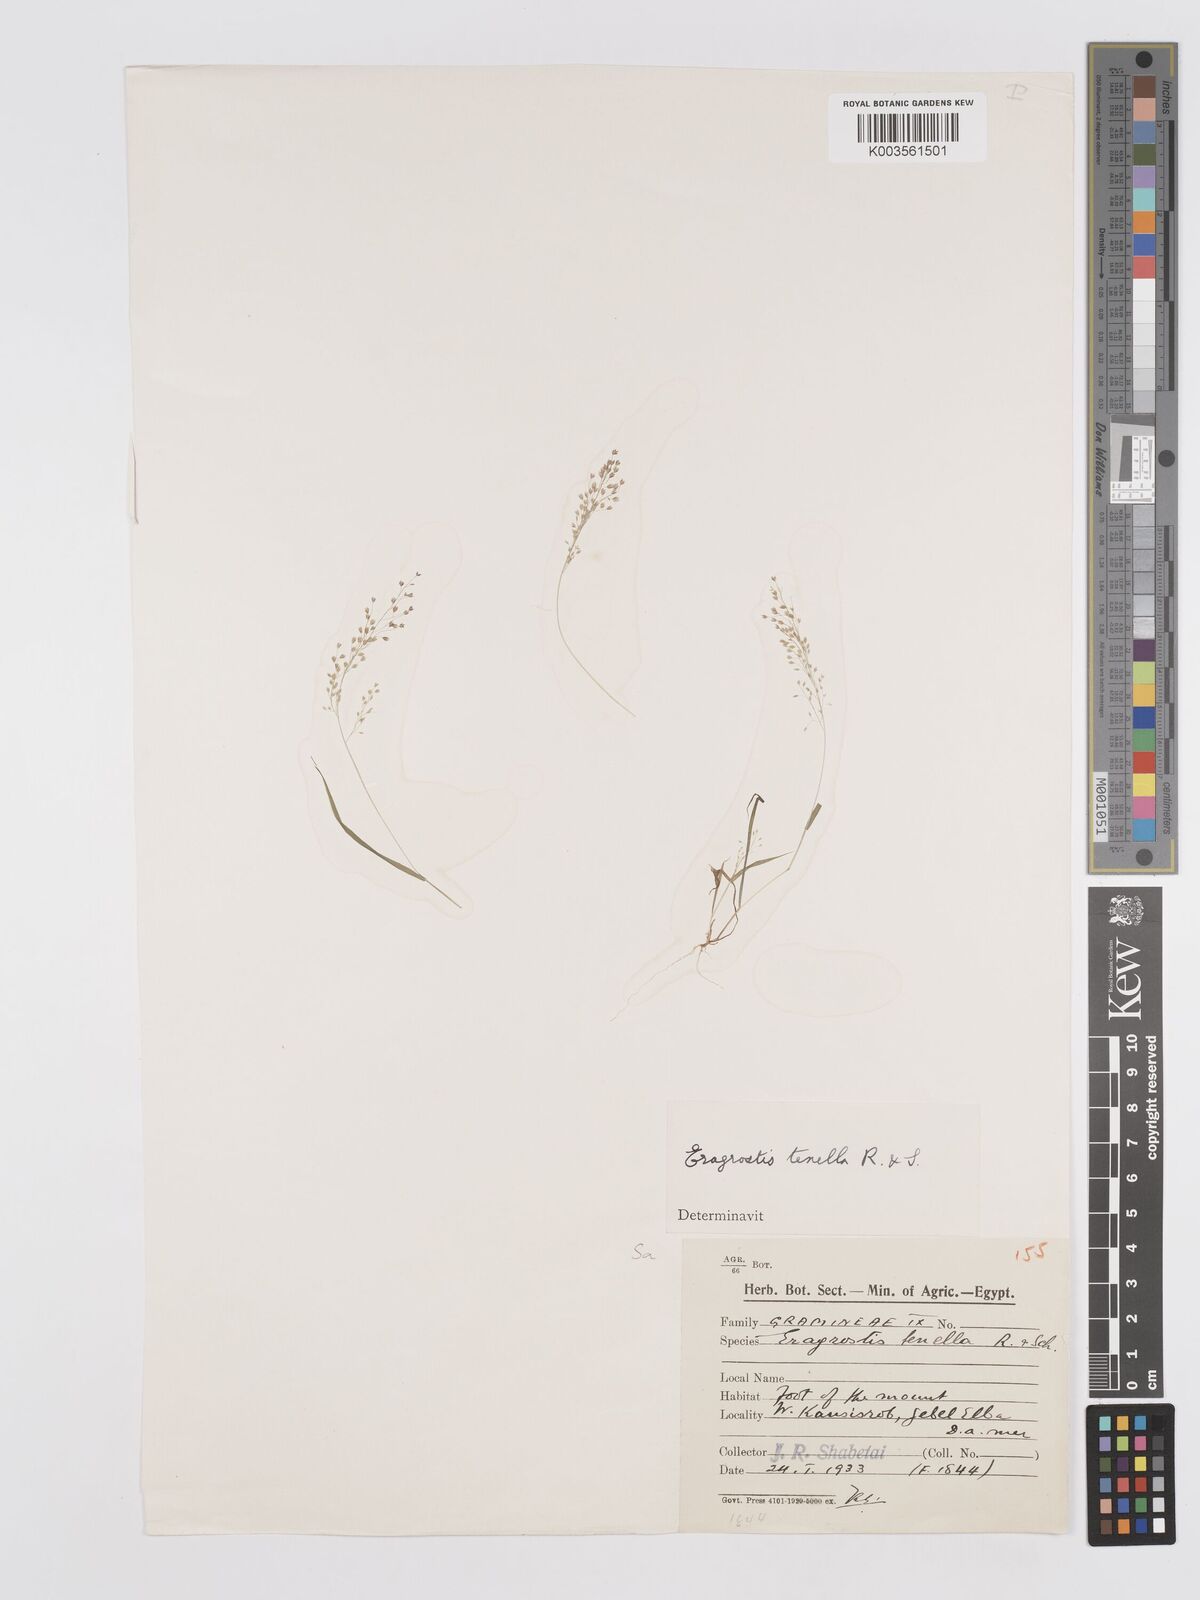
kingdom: Plantae
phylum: Tracheophyta
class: Liliopsida
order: Poales
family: Poaceae
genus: Eragrostis
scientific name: Eragrostis lepida
